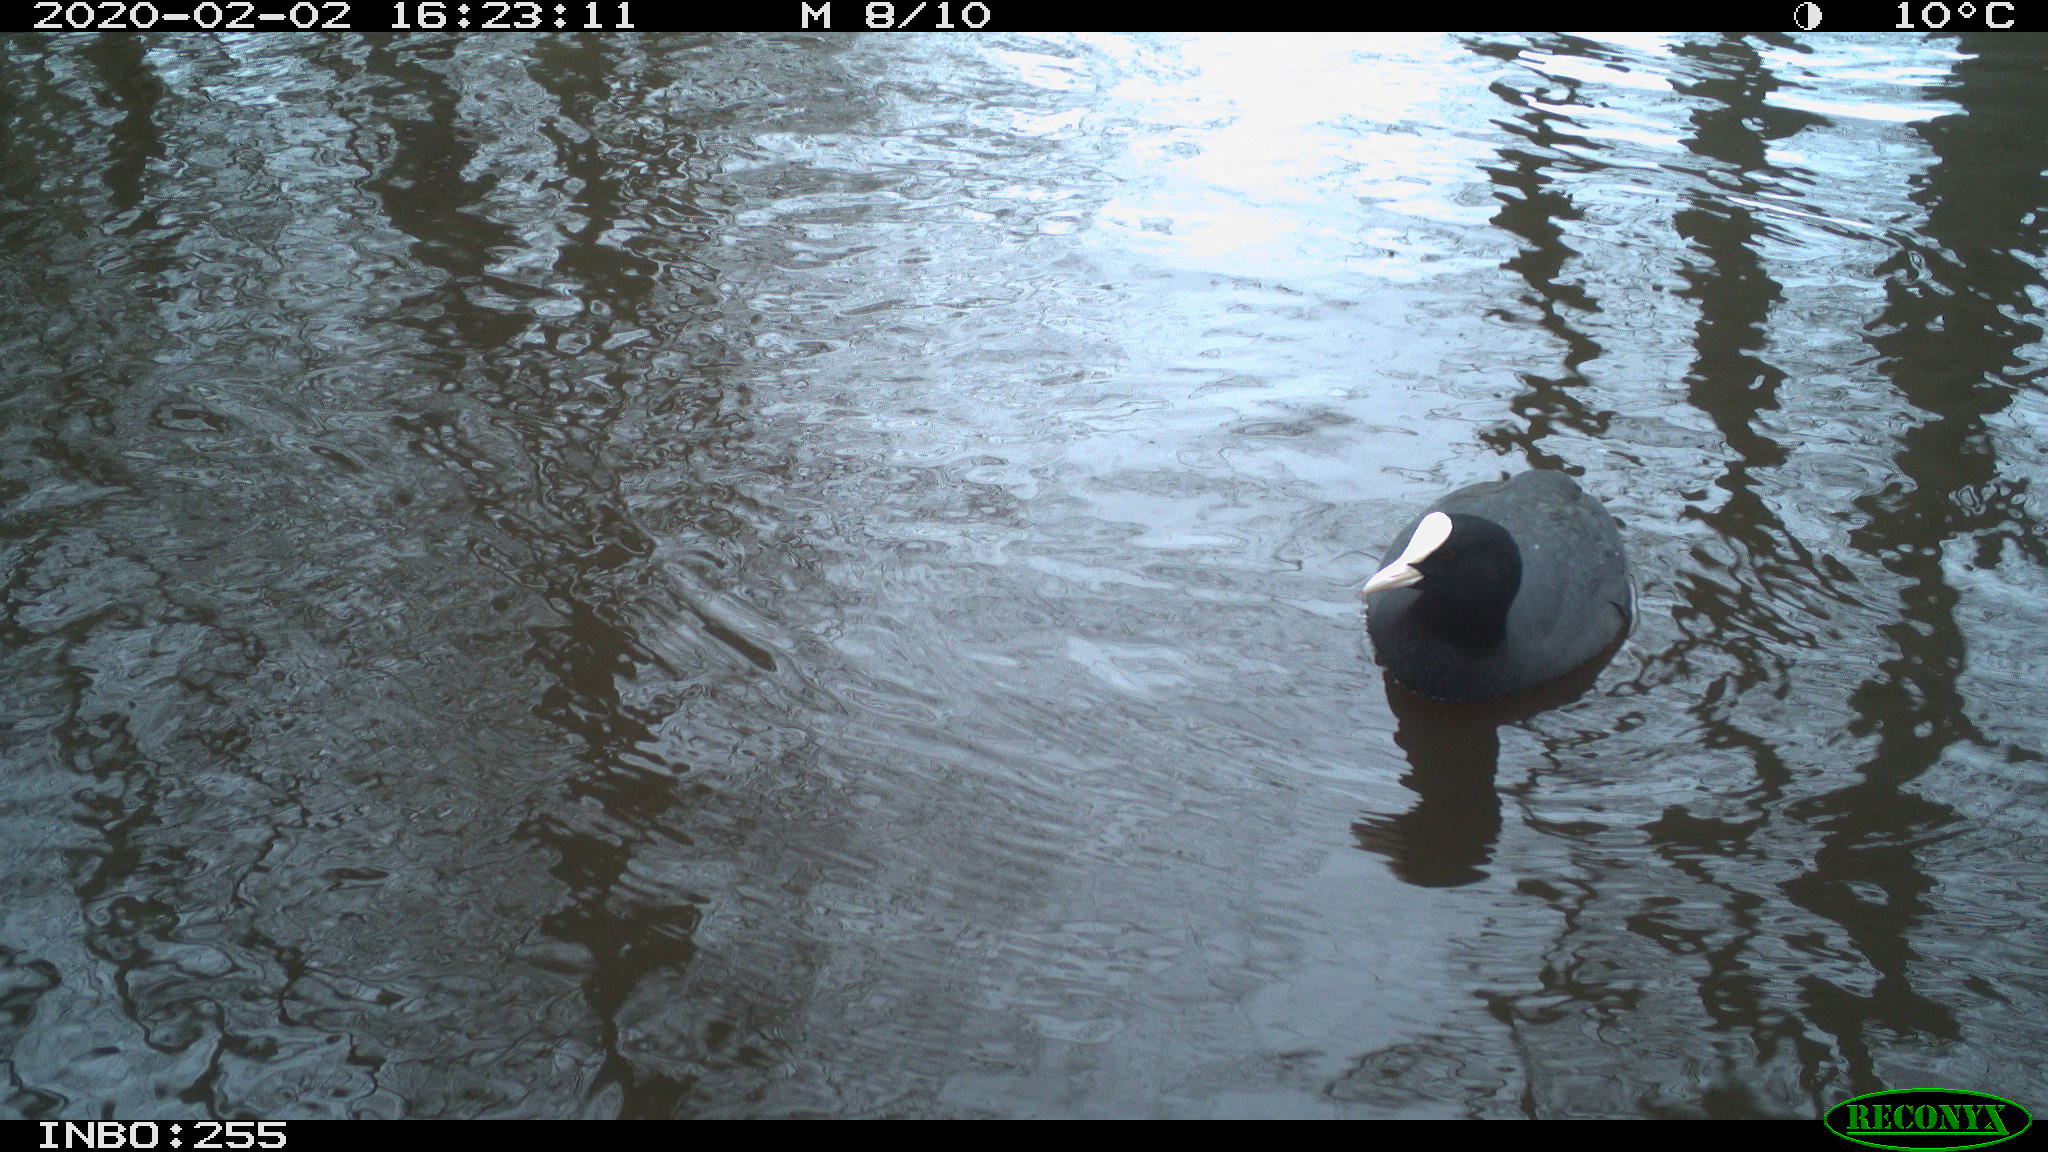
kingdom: Animalia
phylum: Chordata
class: Aves
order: Gruiformes
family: Rallidae
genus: Fulica
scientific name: Fulica atra
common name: Eurasian coot
